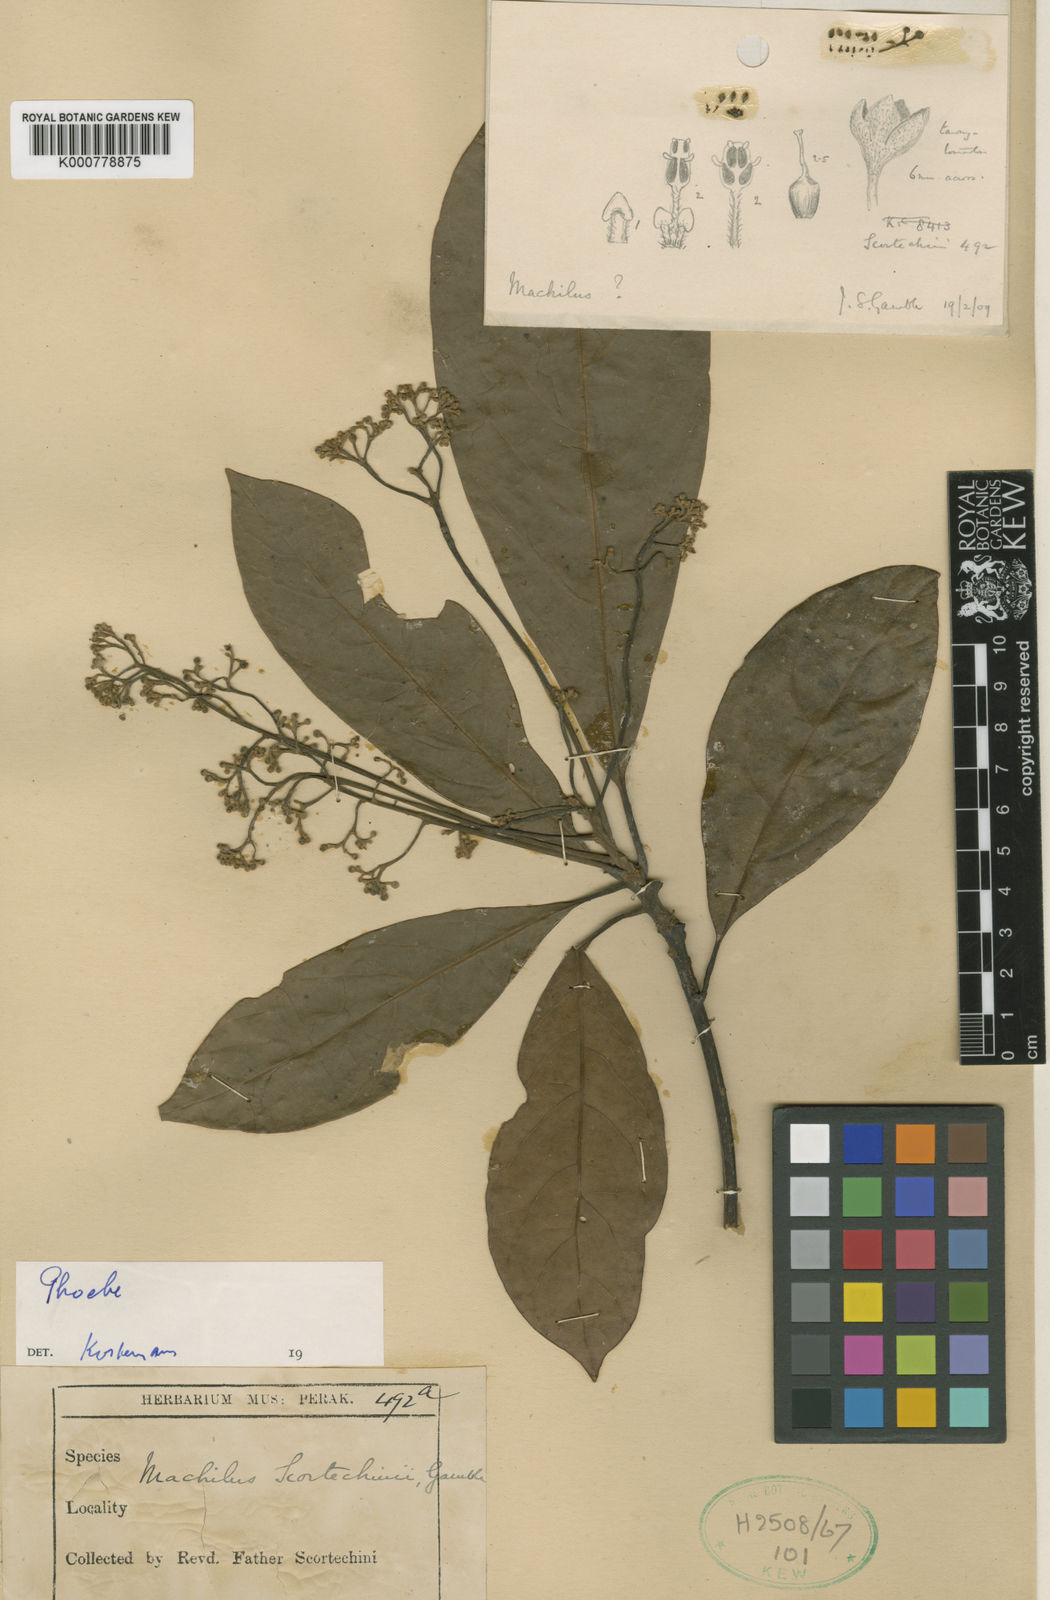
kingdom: Plantae
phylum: Tracheophyta
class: Magnoliopsida
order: Laurales
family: Lauraceae
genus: Phoebe
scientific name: Phoebe scortechinii
